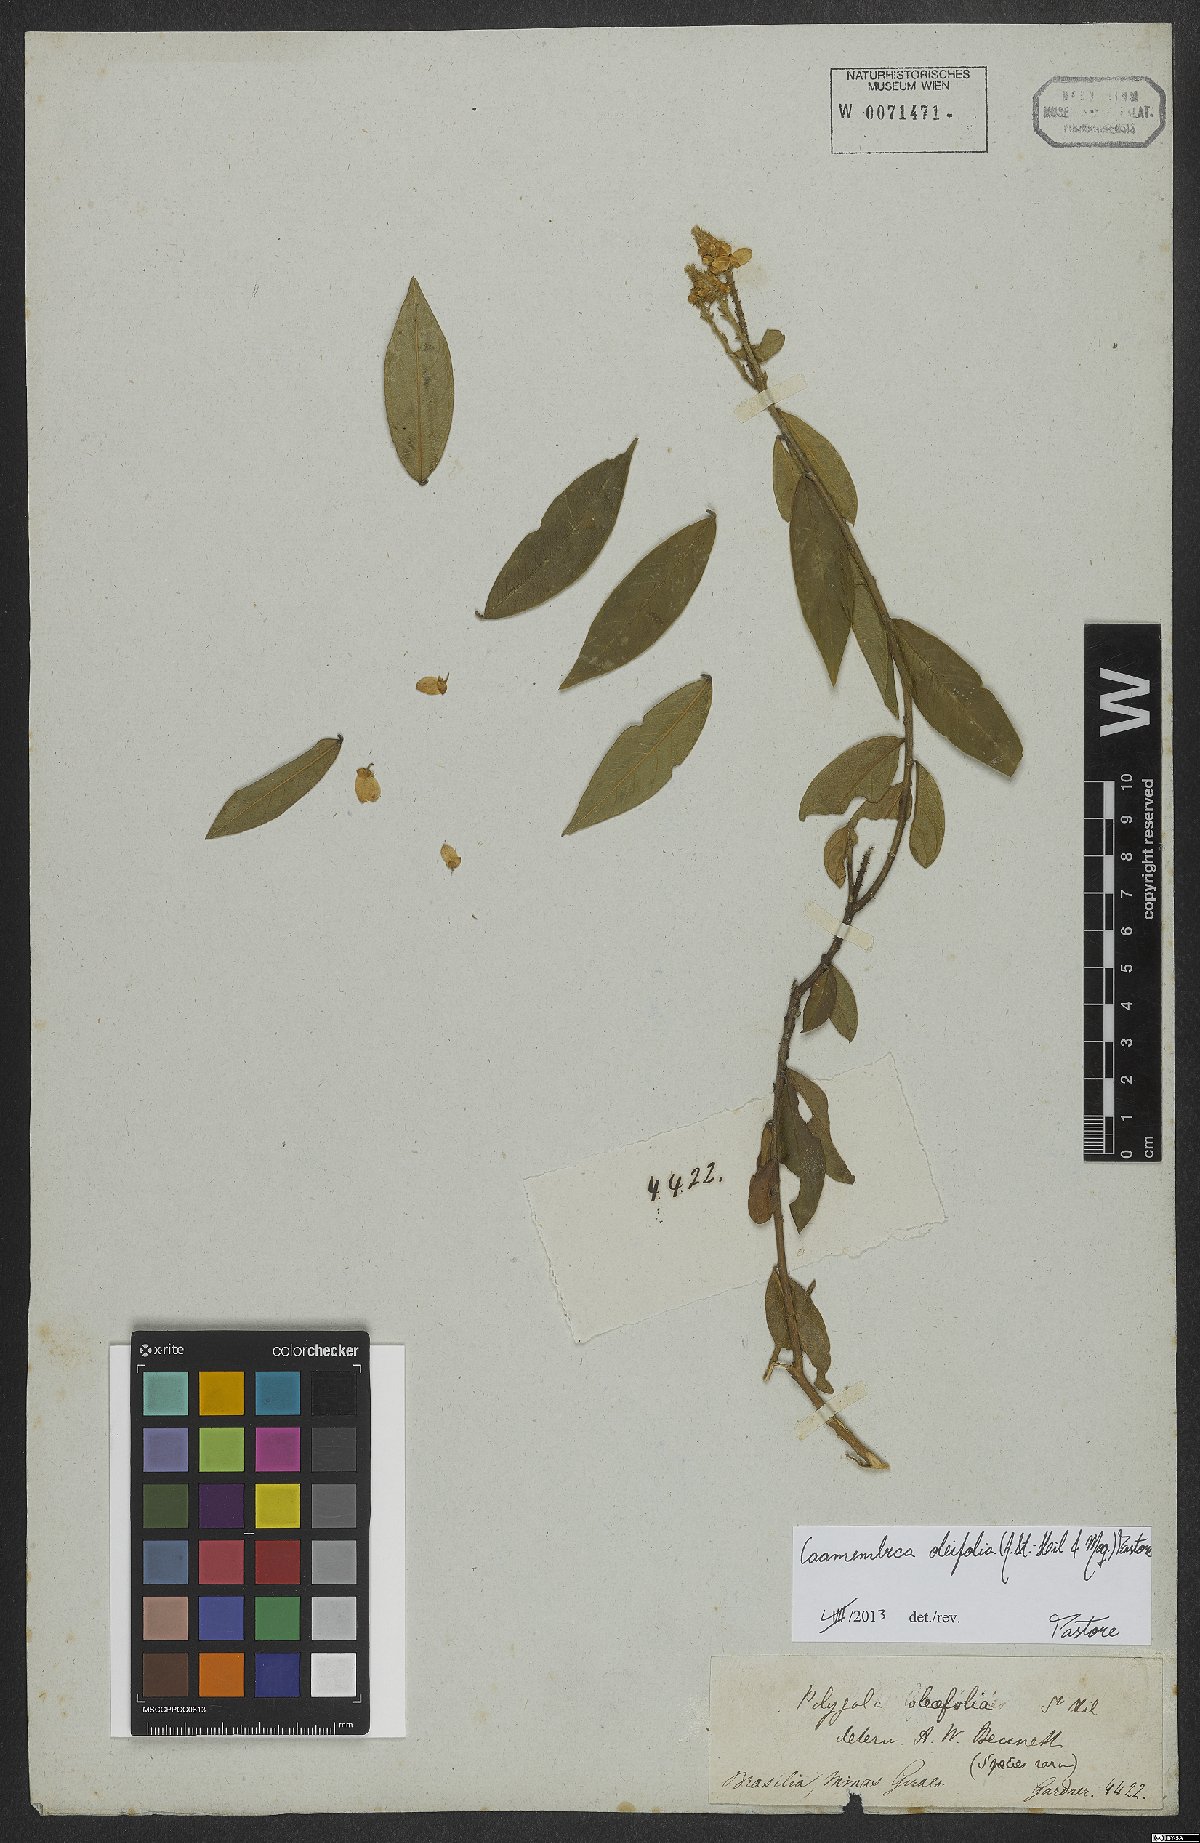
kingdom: Plantae
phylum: Tracheophyta
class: Magnoliopsida
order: Fabales
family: Polygalaceae
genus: Caamembeca
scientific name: Caamembeca oleifolia
